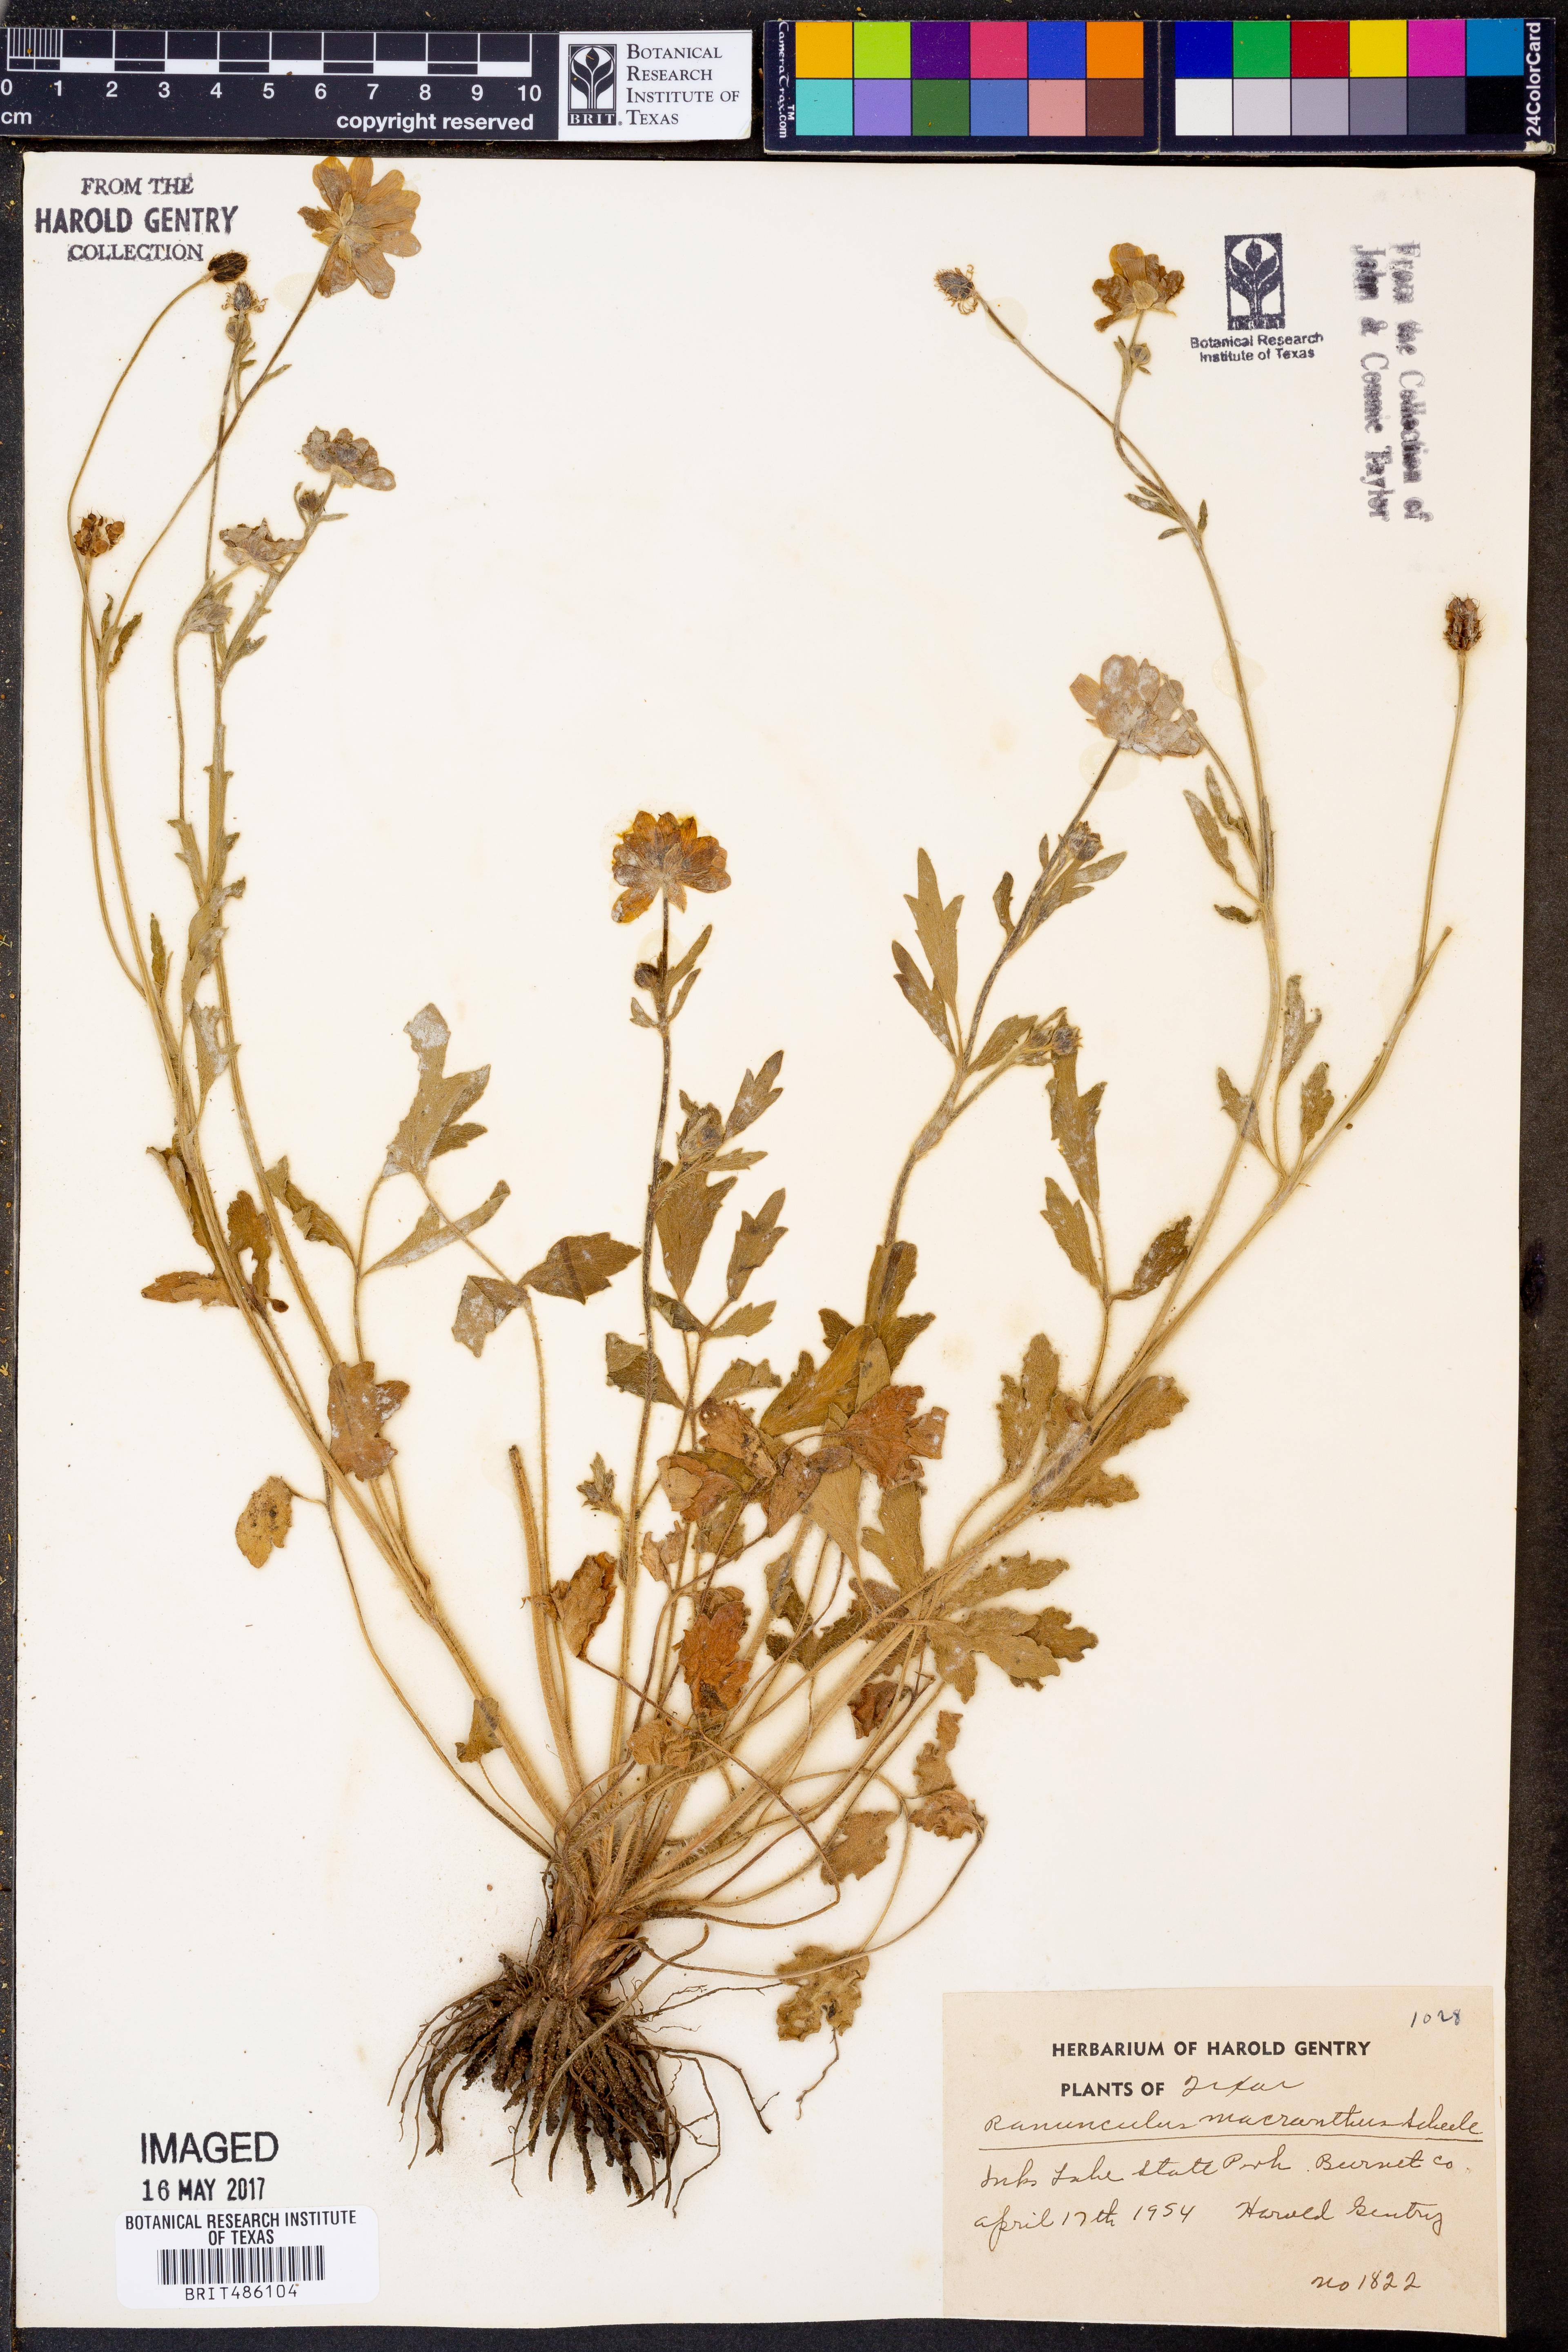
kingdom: Plantae
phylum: Tracheophyta
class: Magnoliopsida
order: Ranunculales
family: Ranunculaceae
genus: Ranunculus
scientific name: Ranunculus macranthus
